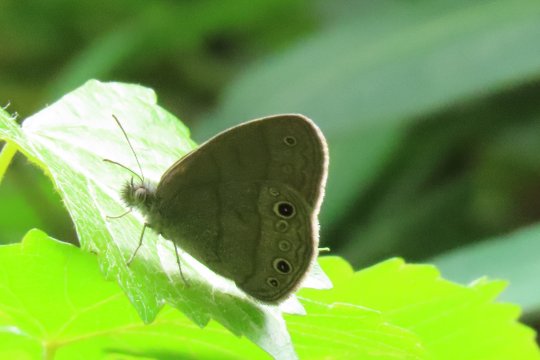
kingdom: Animalia
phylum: Arthropoda
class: Insecta
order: Lepidoptera
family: Nymphalidae
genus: Hermeuptychia
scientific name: Hermeuptychia hermes
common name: Carolina Satyr
